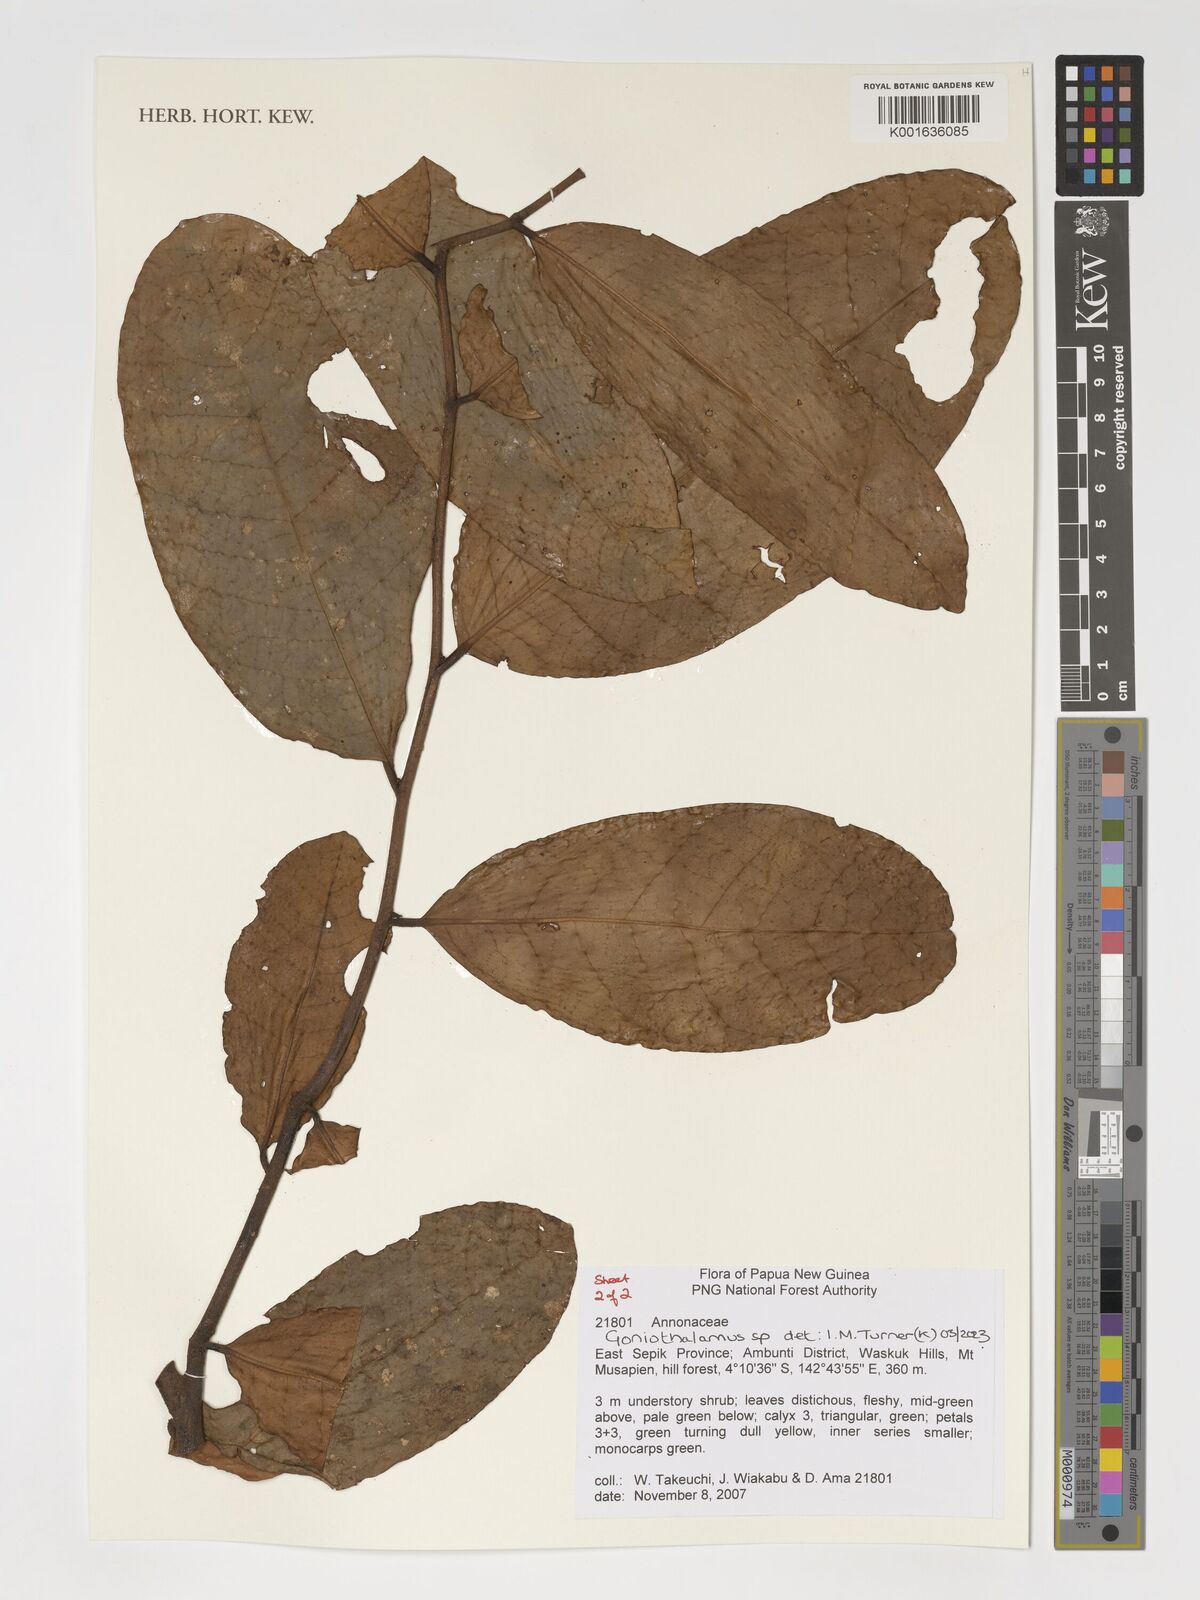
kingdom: Plantae
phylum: Tracheophyta
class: Magnoliopsida
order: Magnoliales
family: Annonaceae
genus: Goniothalamus
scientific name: Goniothalamus
